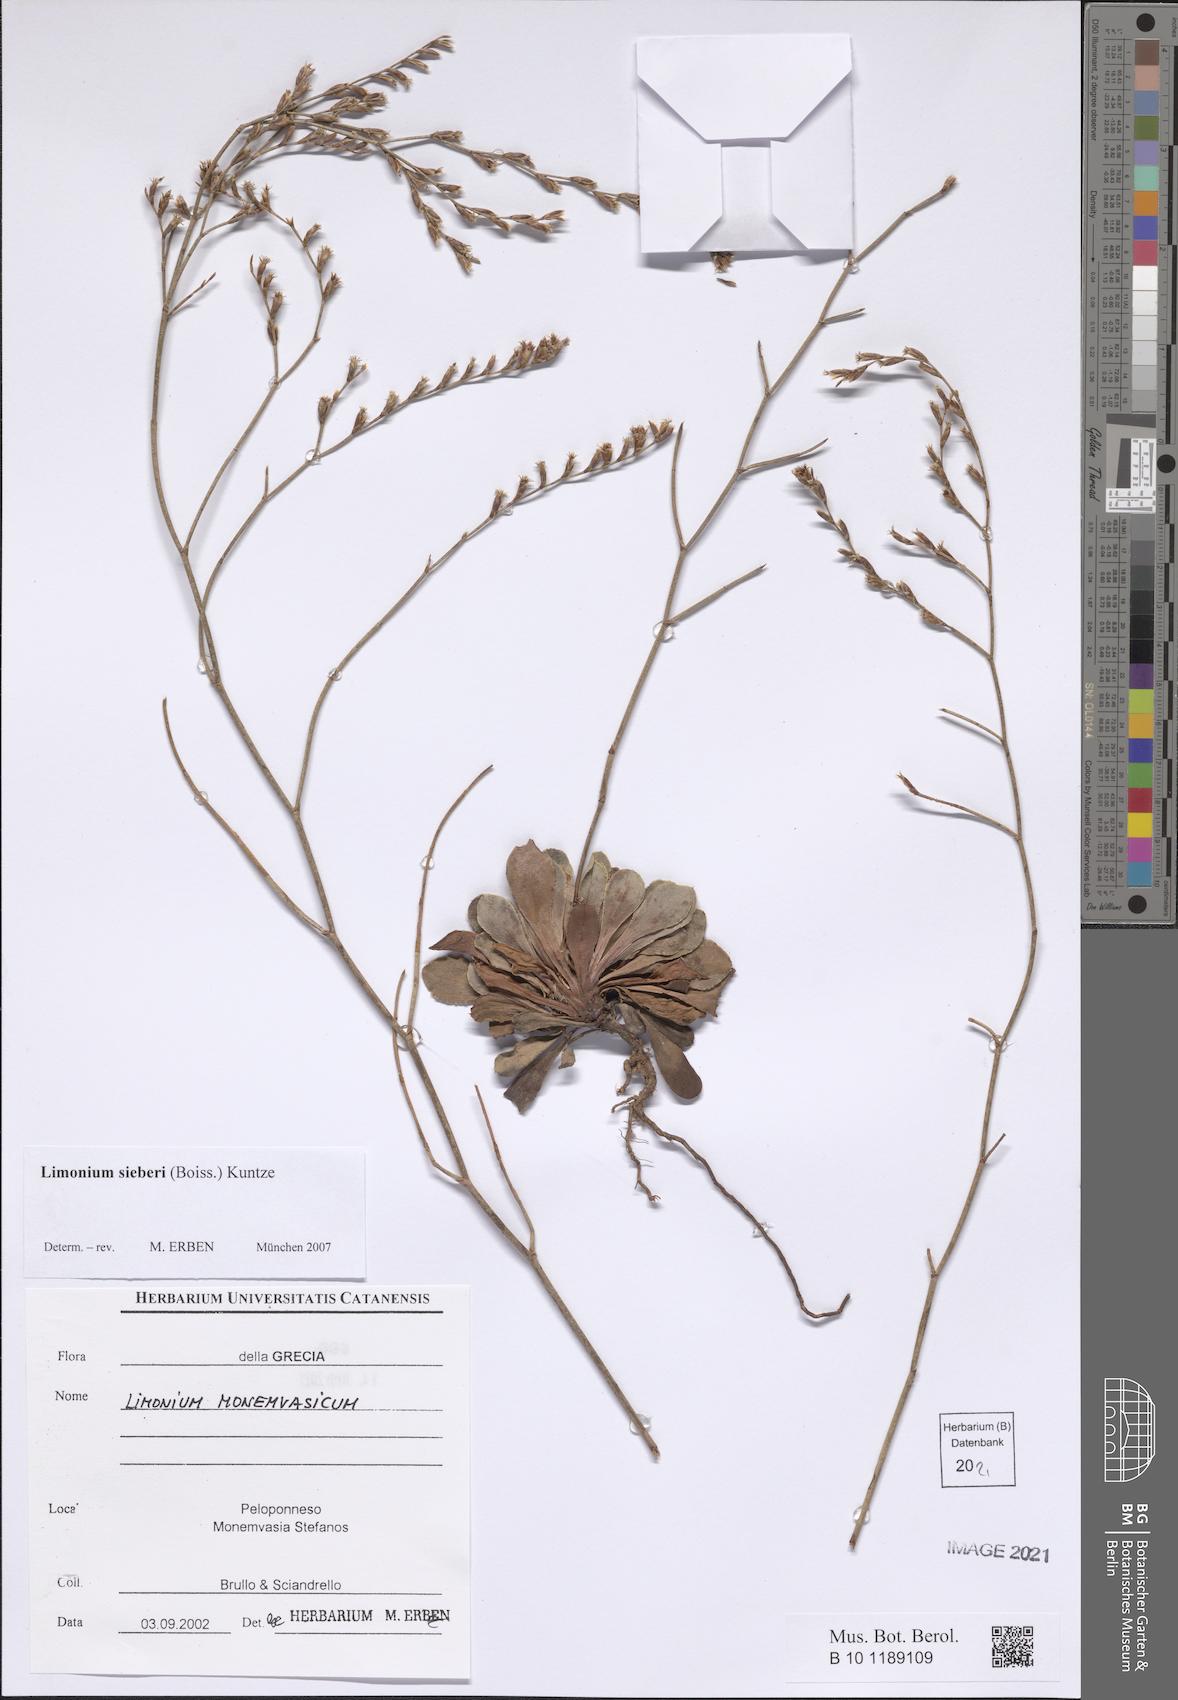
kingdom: Plantae
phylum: Tracheophyta
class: Magnoliopsida
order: Caryophyllales
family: Plumbaginaceae
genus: Limonium
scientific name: Limonium sieberi
